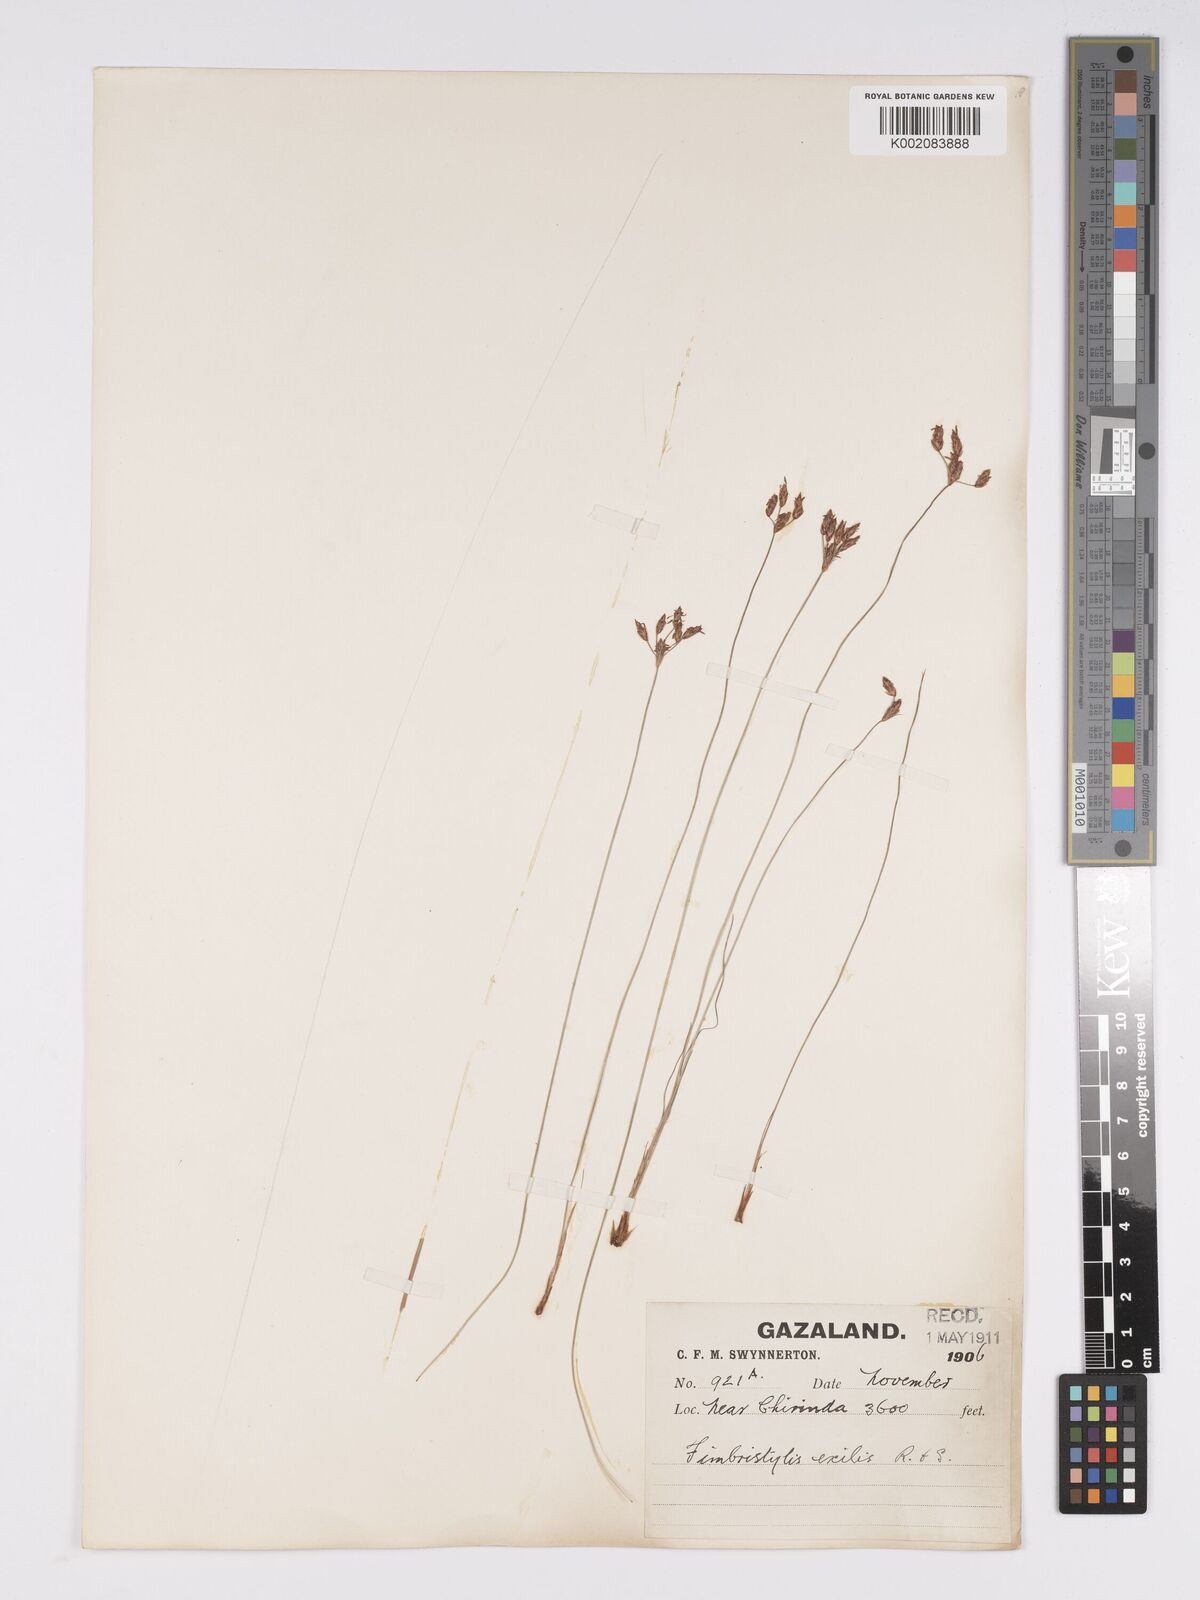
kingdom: Plantae
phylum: Tracheophyta
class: Liliopsida
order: Poales
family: Cyperaceae
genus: Bulbostylis
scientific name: Bulbostylis hispidula
